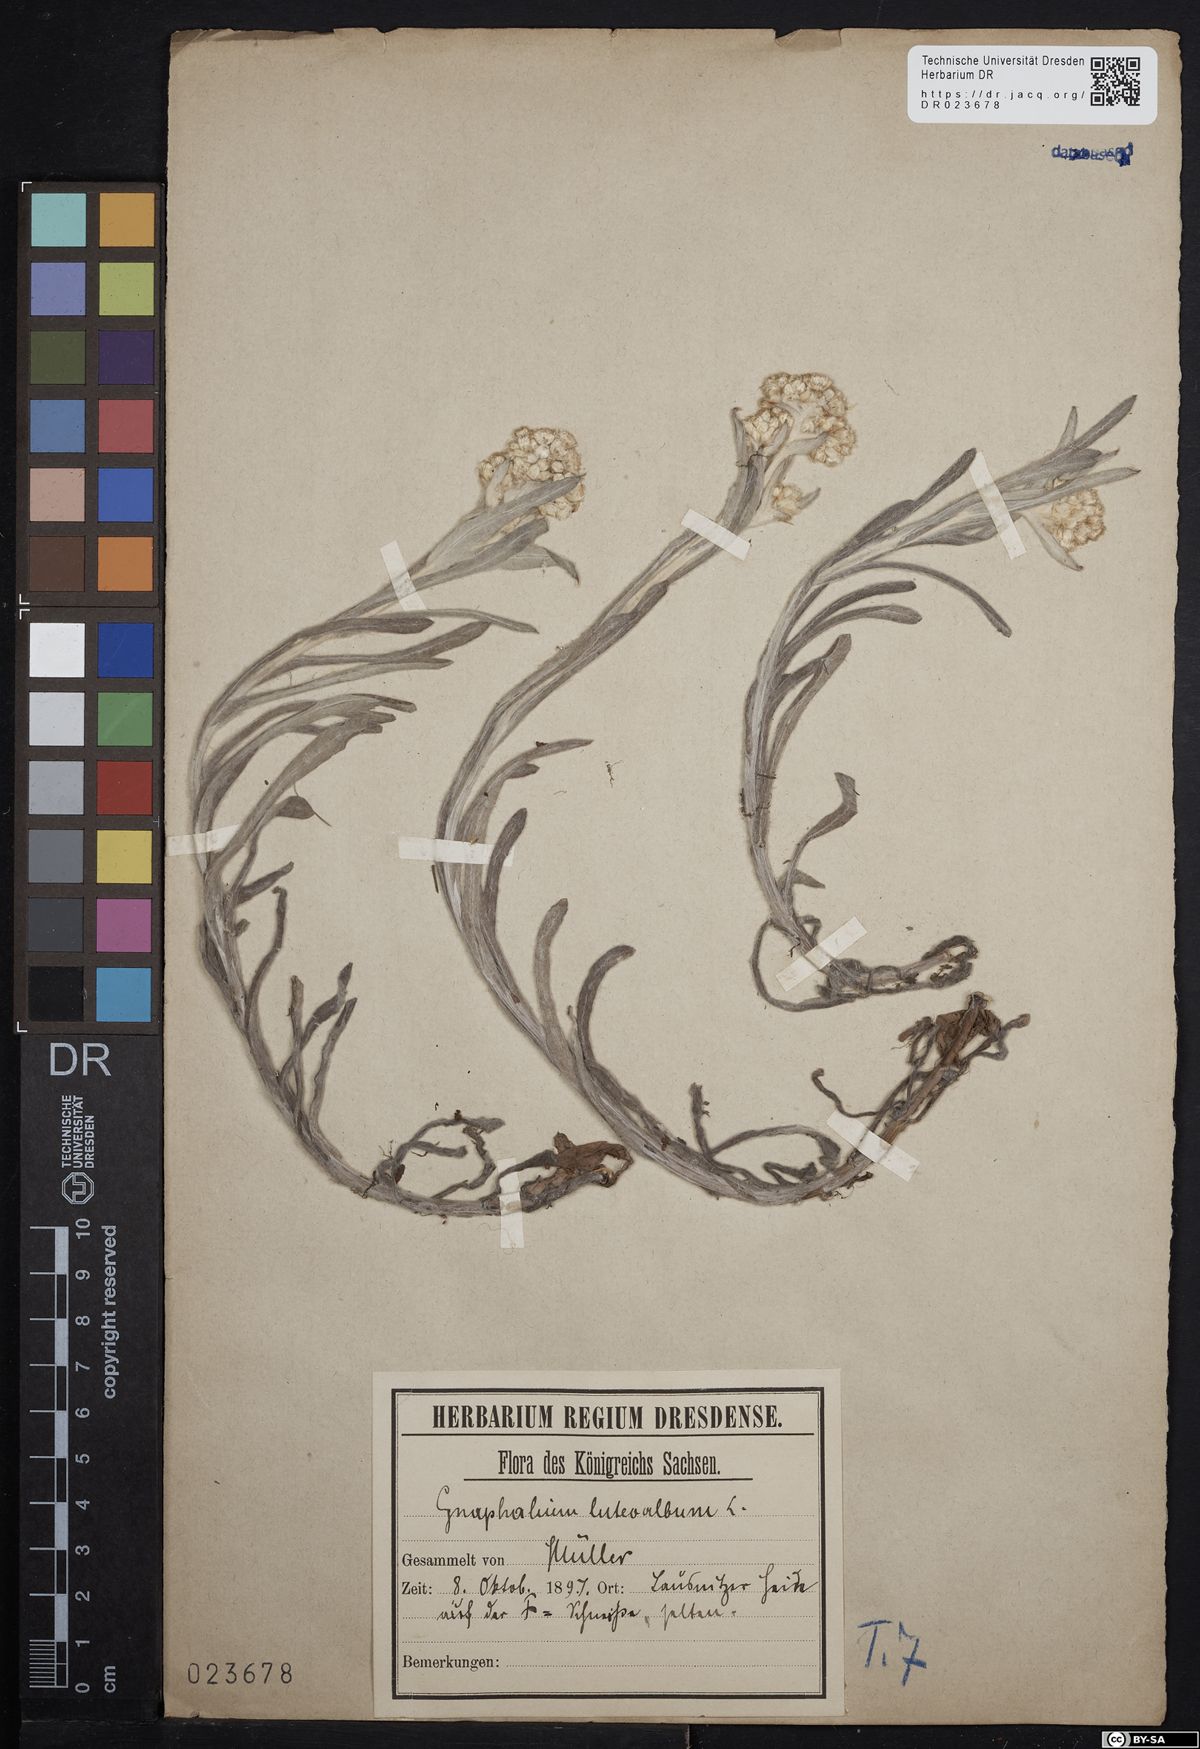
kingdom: Plantae
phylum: Tracheophyta
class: Magnoliopsida
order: Asterales
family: Asteraceae
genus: Helichrysum
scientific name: Helichrysum luteoalbum
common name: Daisy
